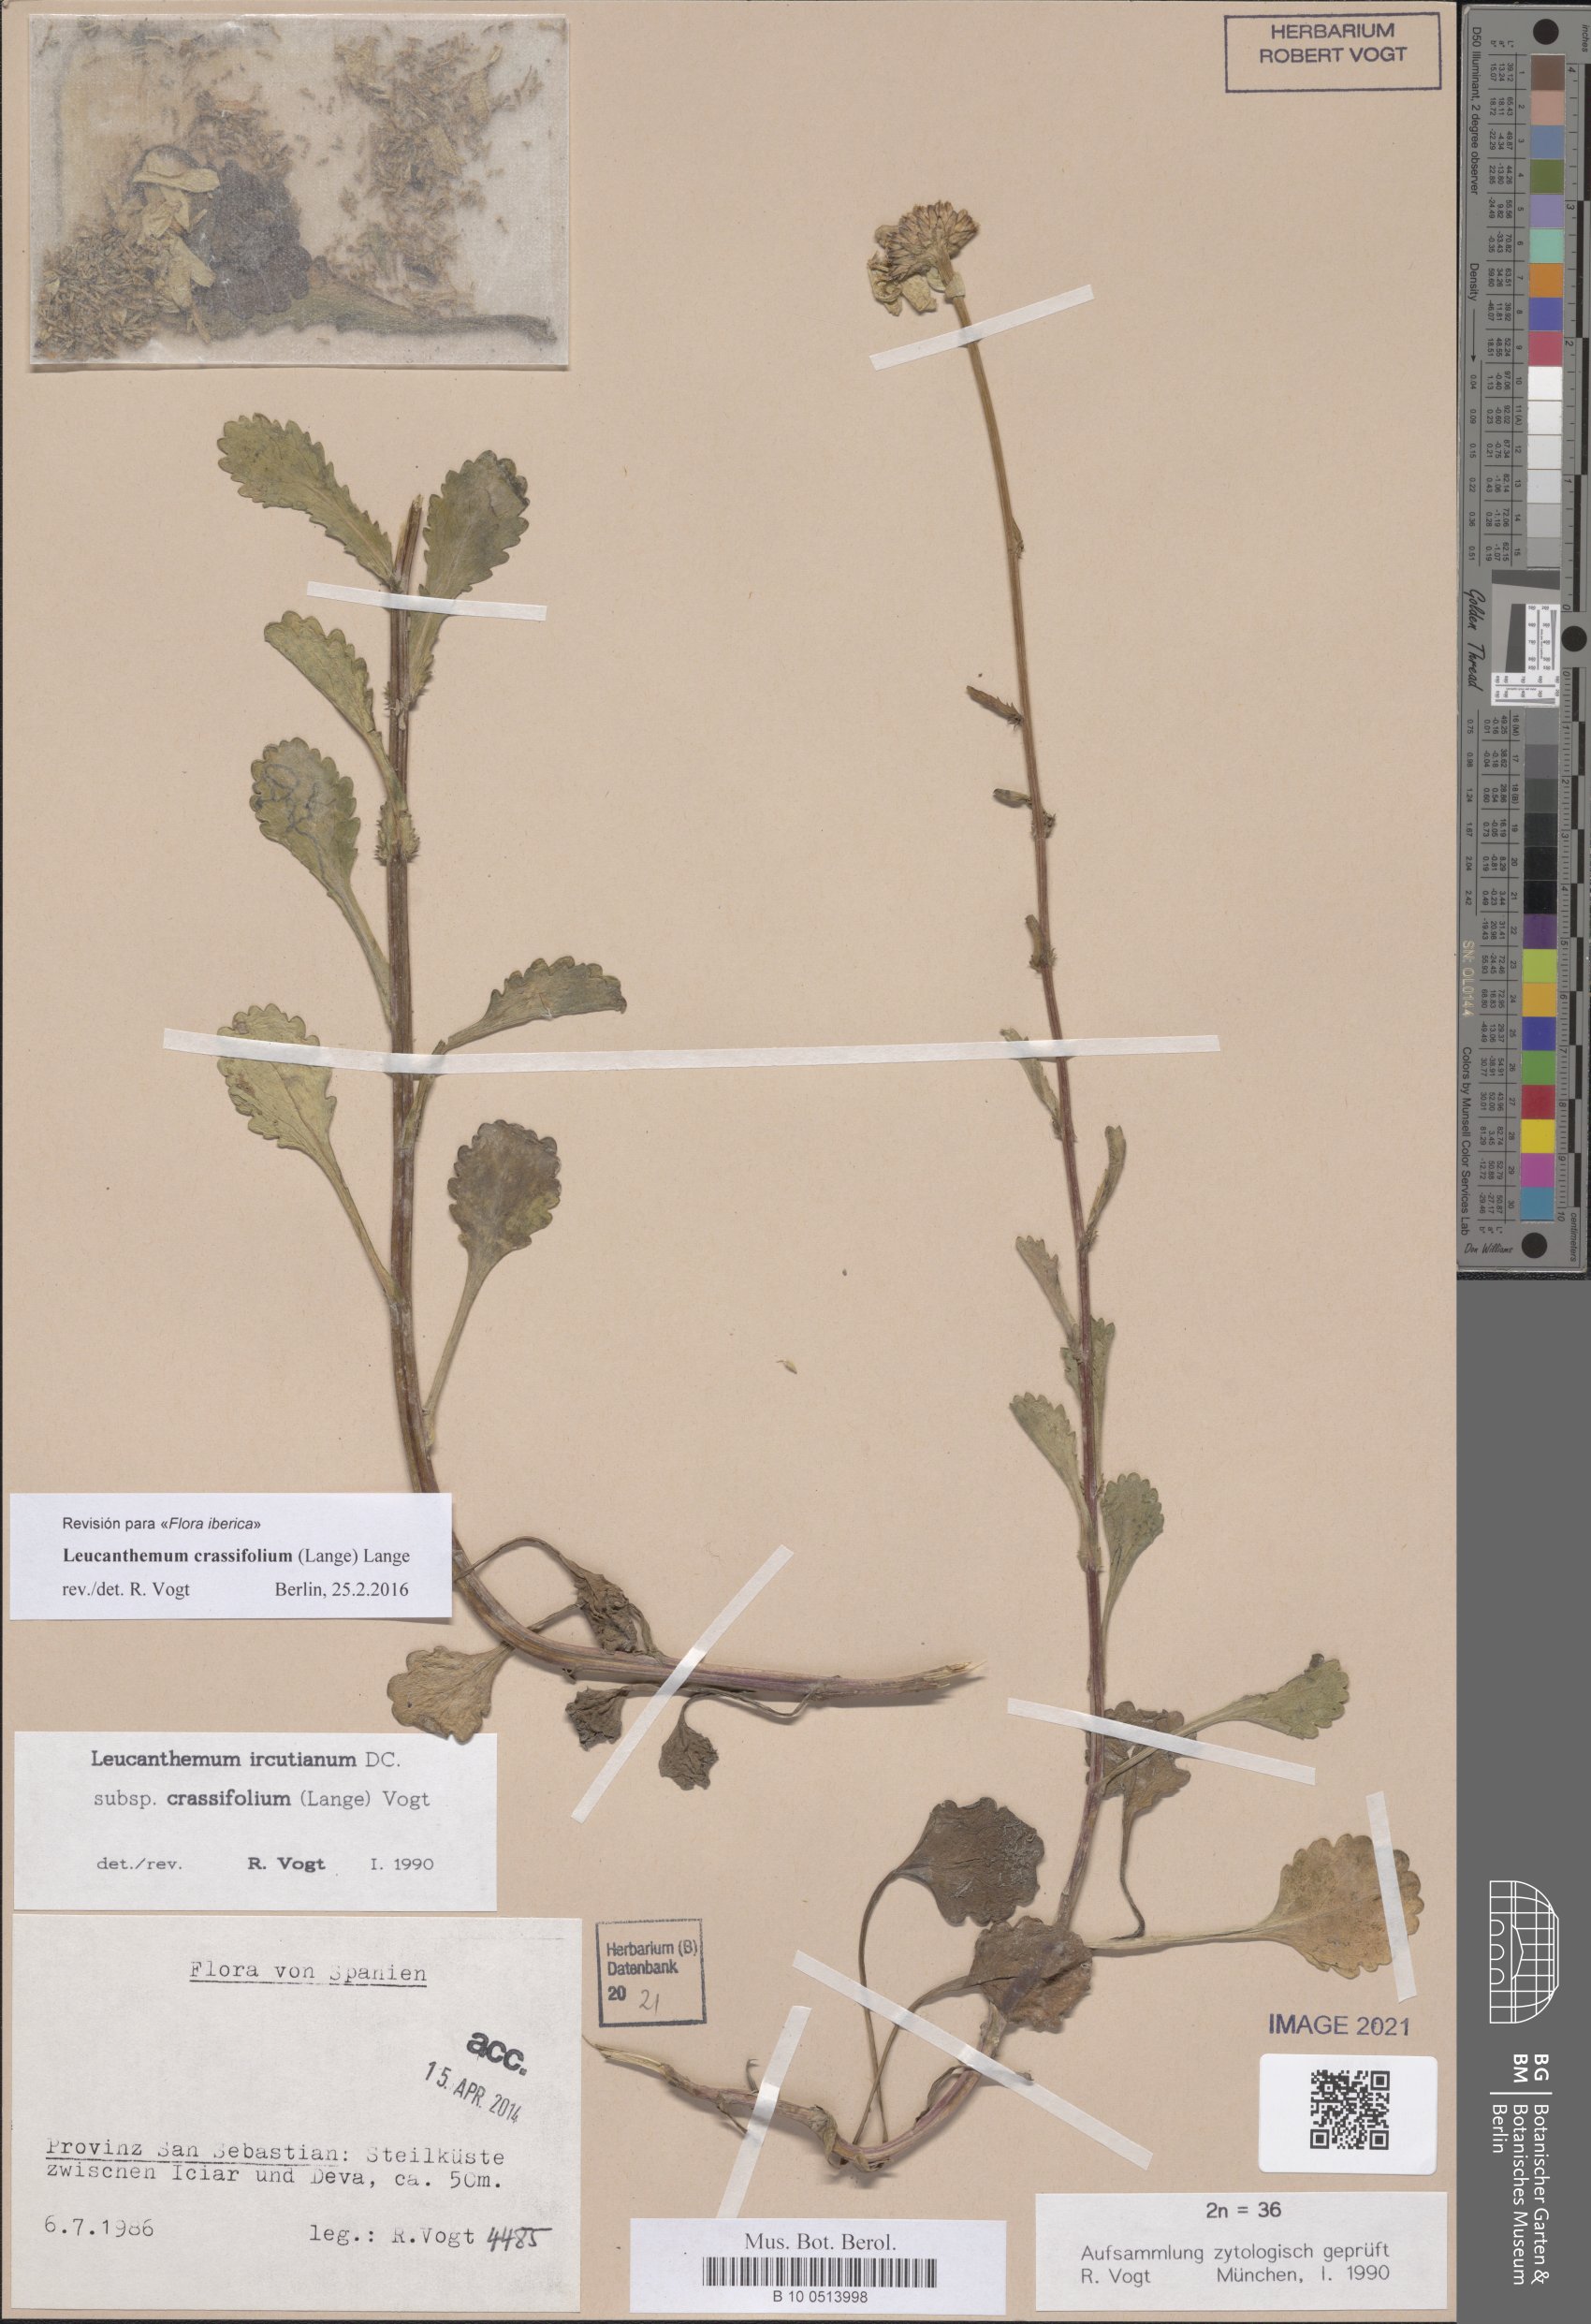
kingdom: Plantae
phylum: Tracheophyta
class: Magnoliopsida
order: Asterales
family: Asteraceae
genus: Leucanthemum
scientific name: Leucanthemum crassifolium
